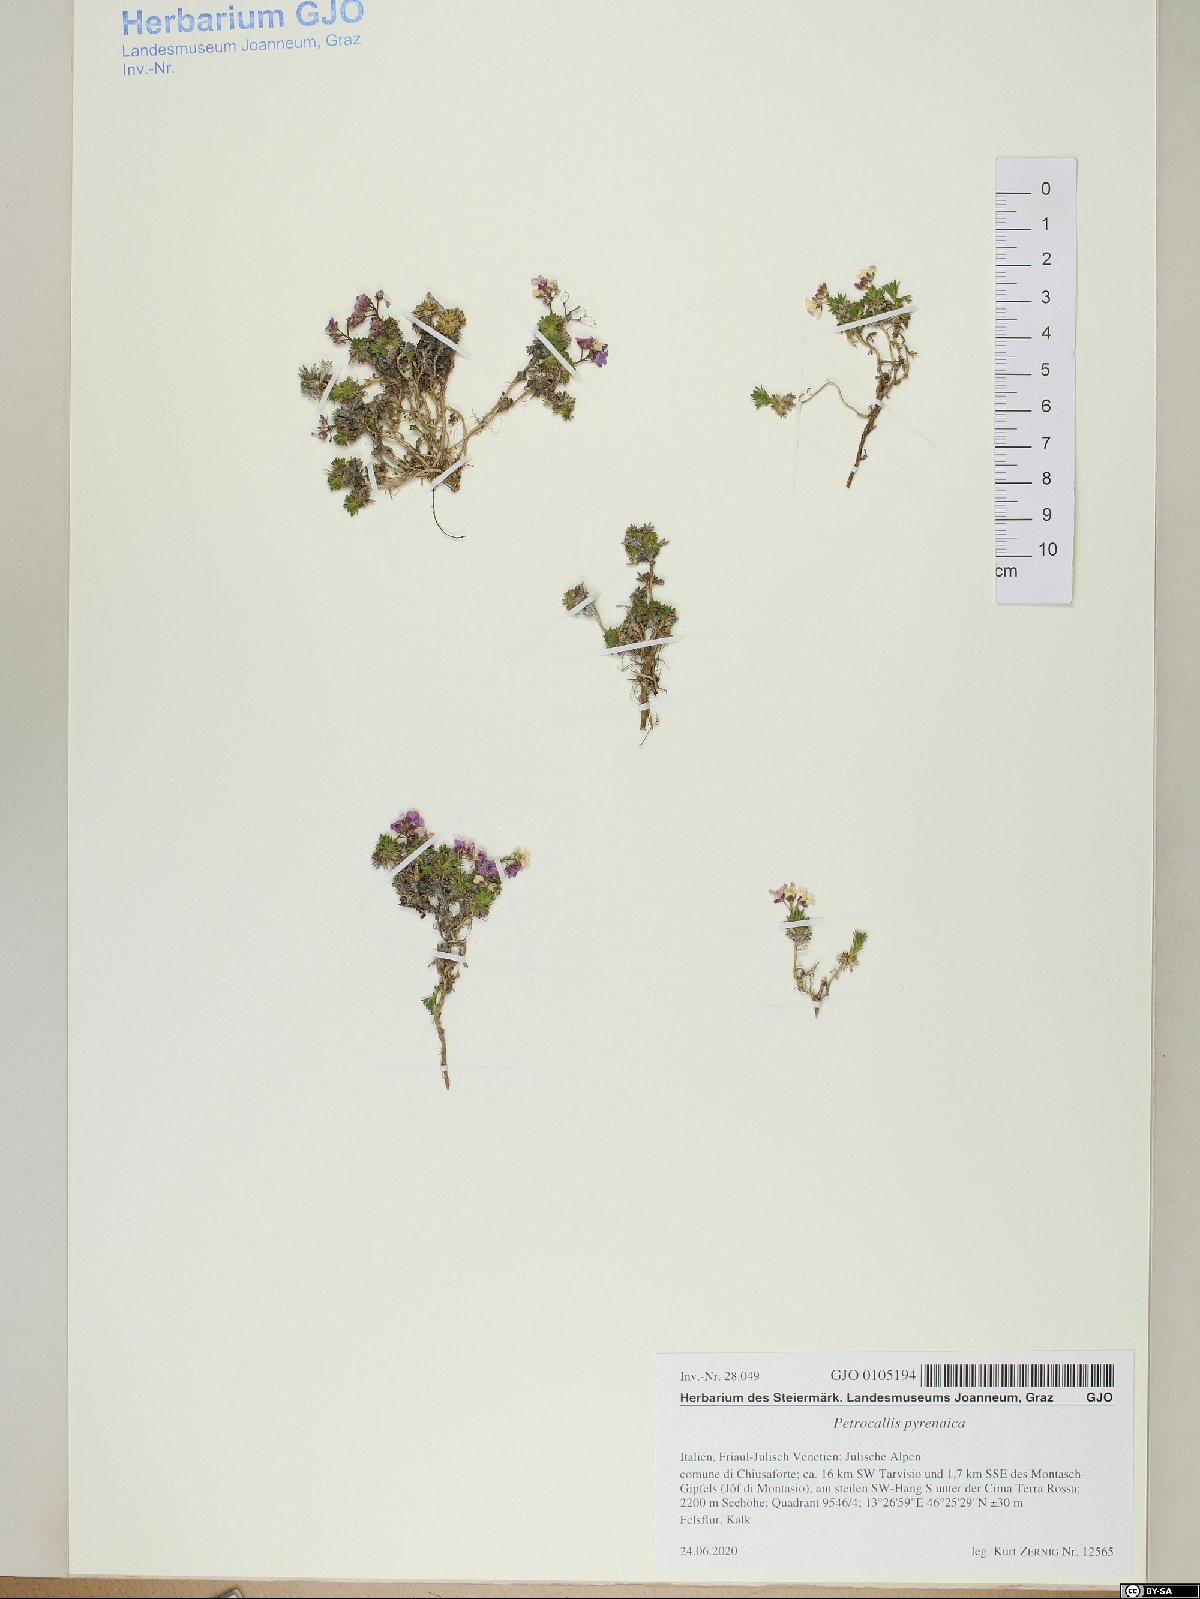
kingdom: Plantae
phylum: Tracheophyta
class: Magnoliopsida
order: Brassicales
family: Brassicaceae
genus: Petrocallis
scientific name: Petrocallis pyrenaica
